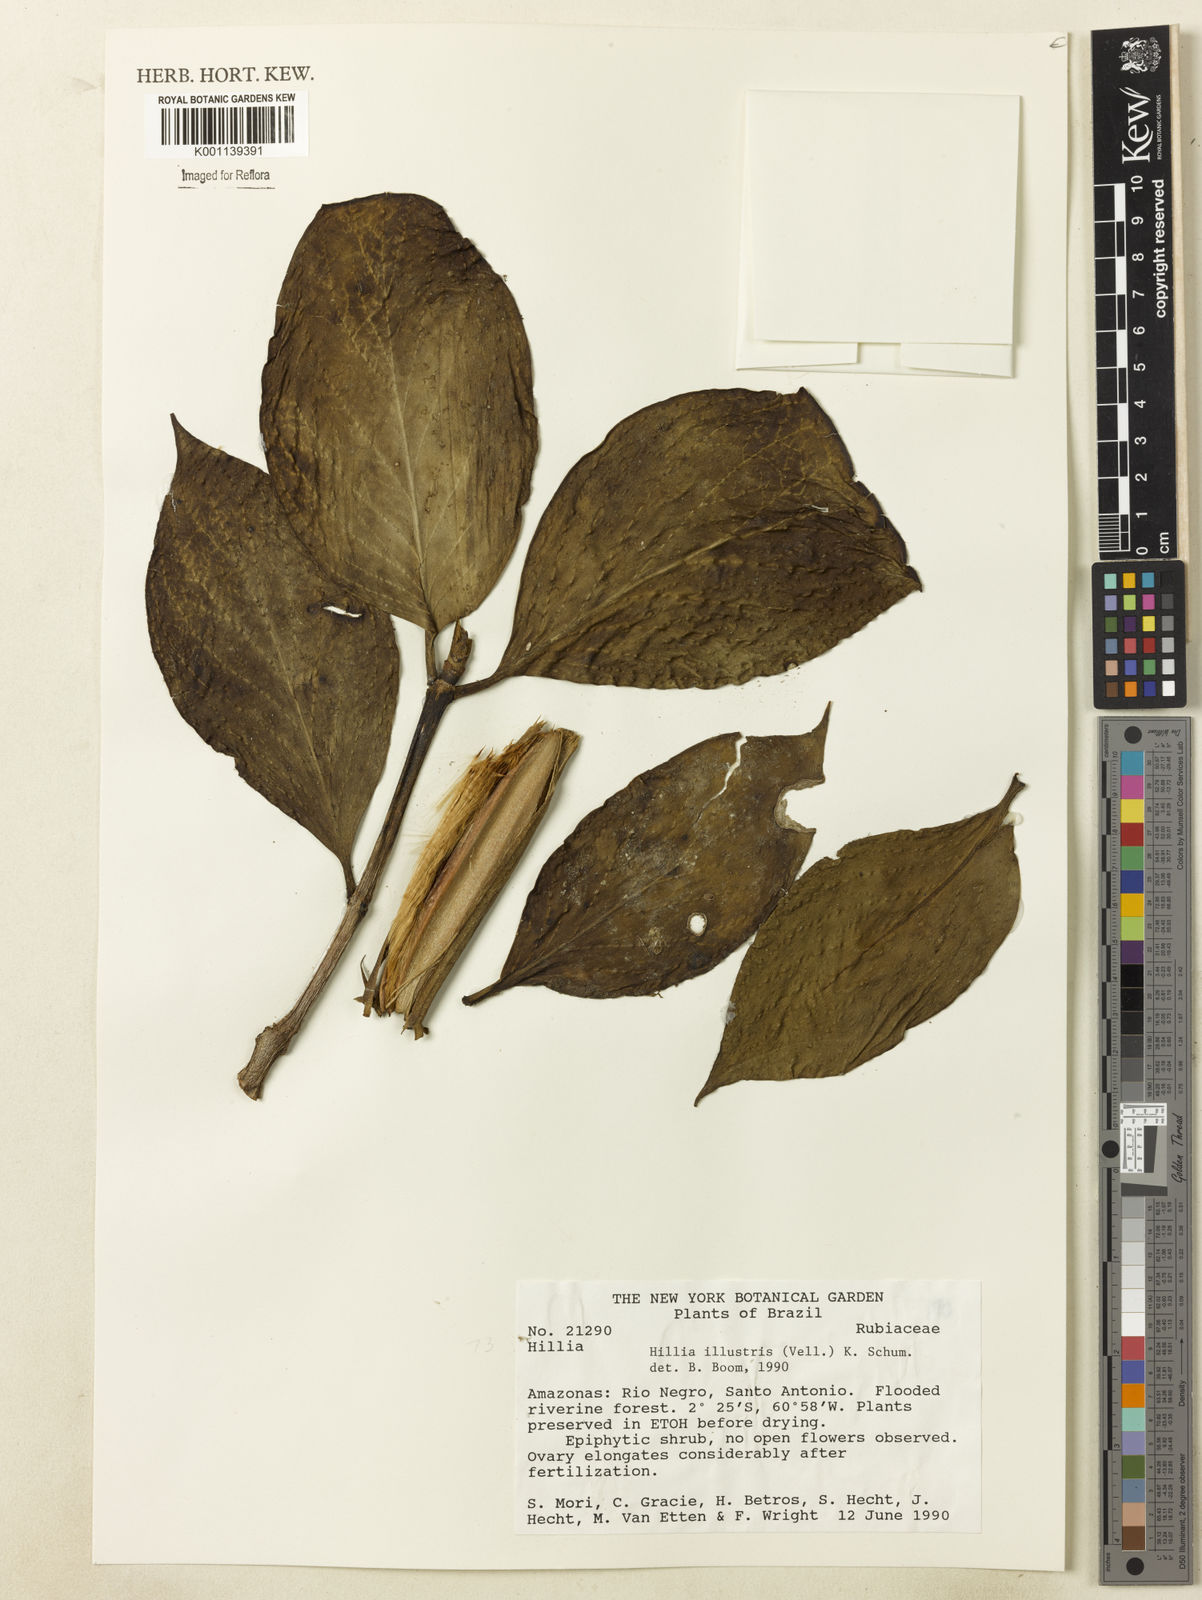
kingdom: Plantae
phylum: Tracheophyta
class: Magnoliopsida
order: Gentianales
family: Rubiaceae
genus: Hillia
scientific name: Hillia illustris
